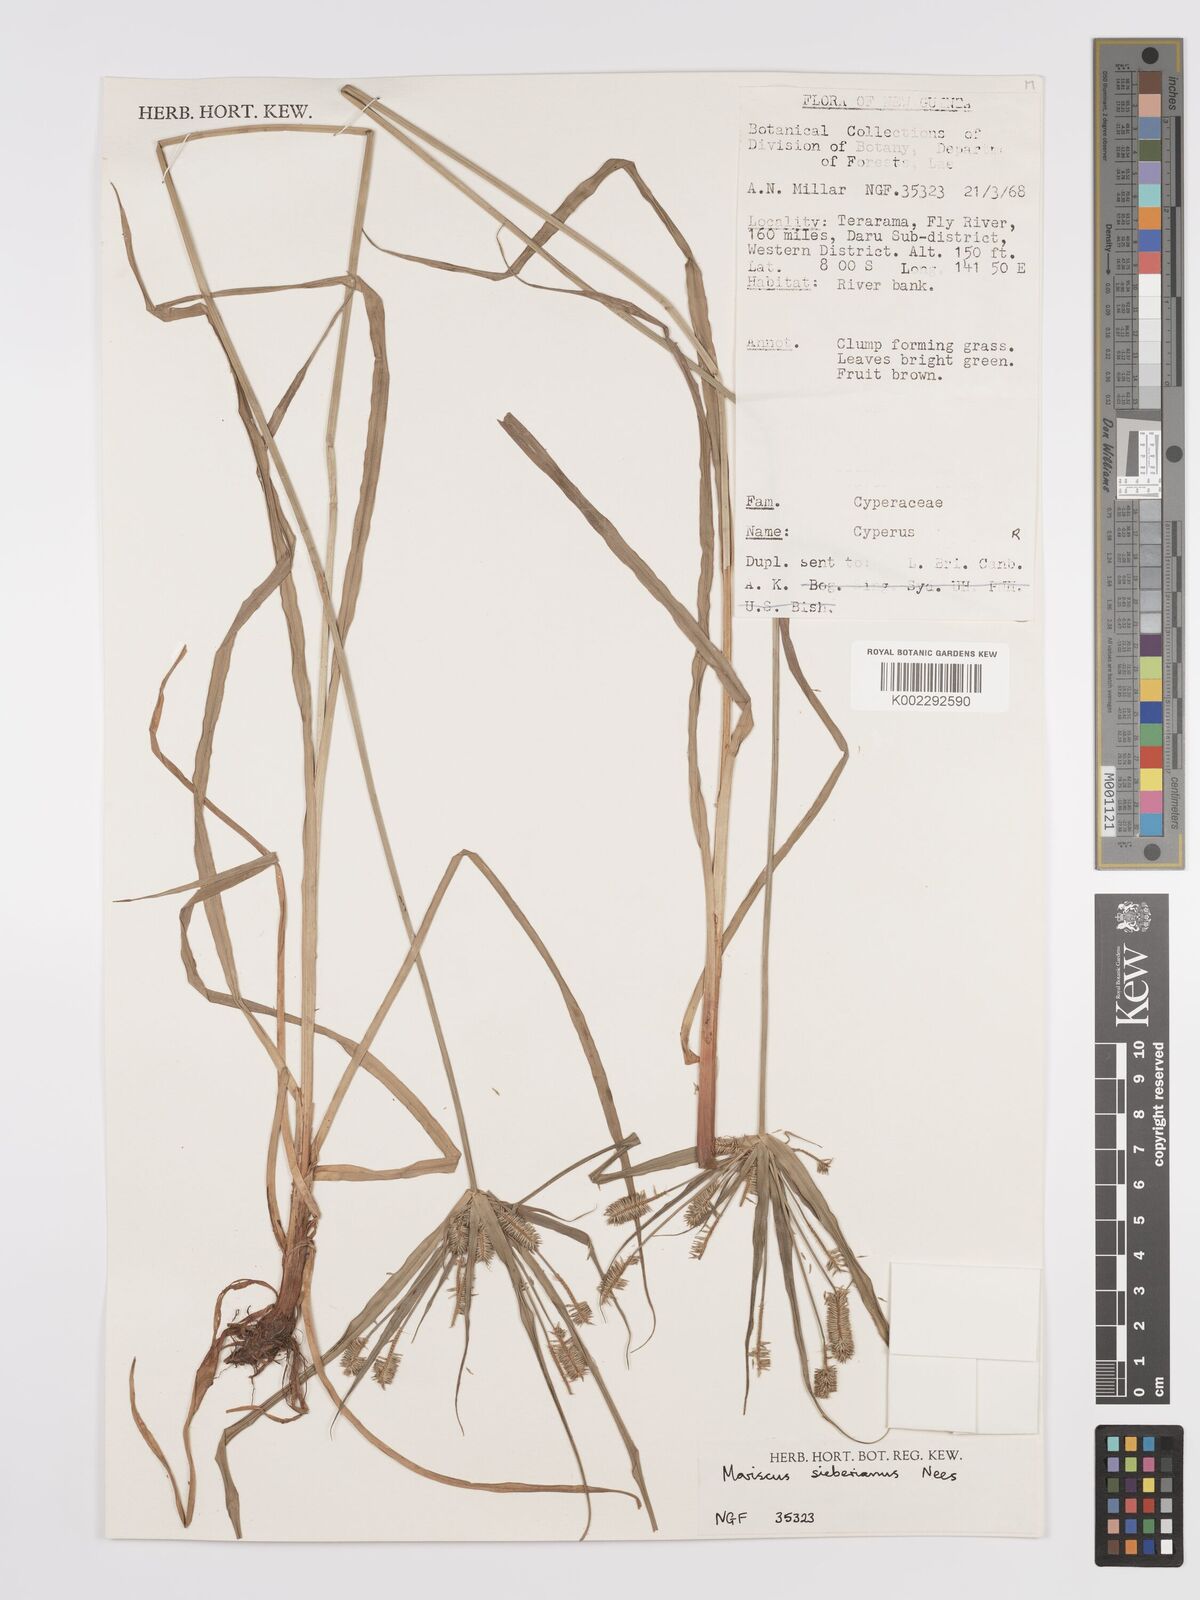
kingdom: Plantae
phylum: Tracheophyta
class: Liliopsida
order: Poales
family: Cyperaceae
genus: Cyperus
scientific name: Cyperus cyperoides
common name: Pacific island flat sedge
